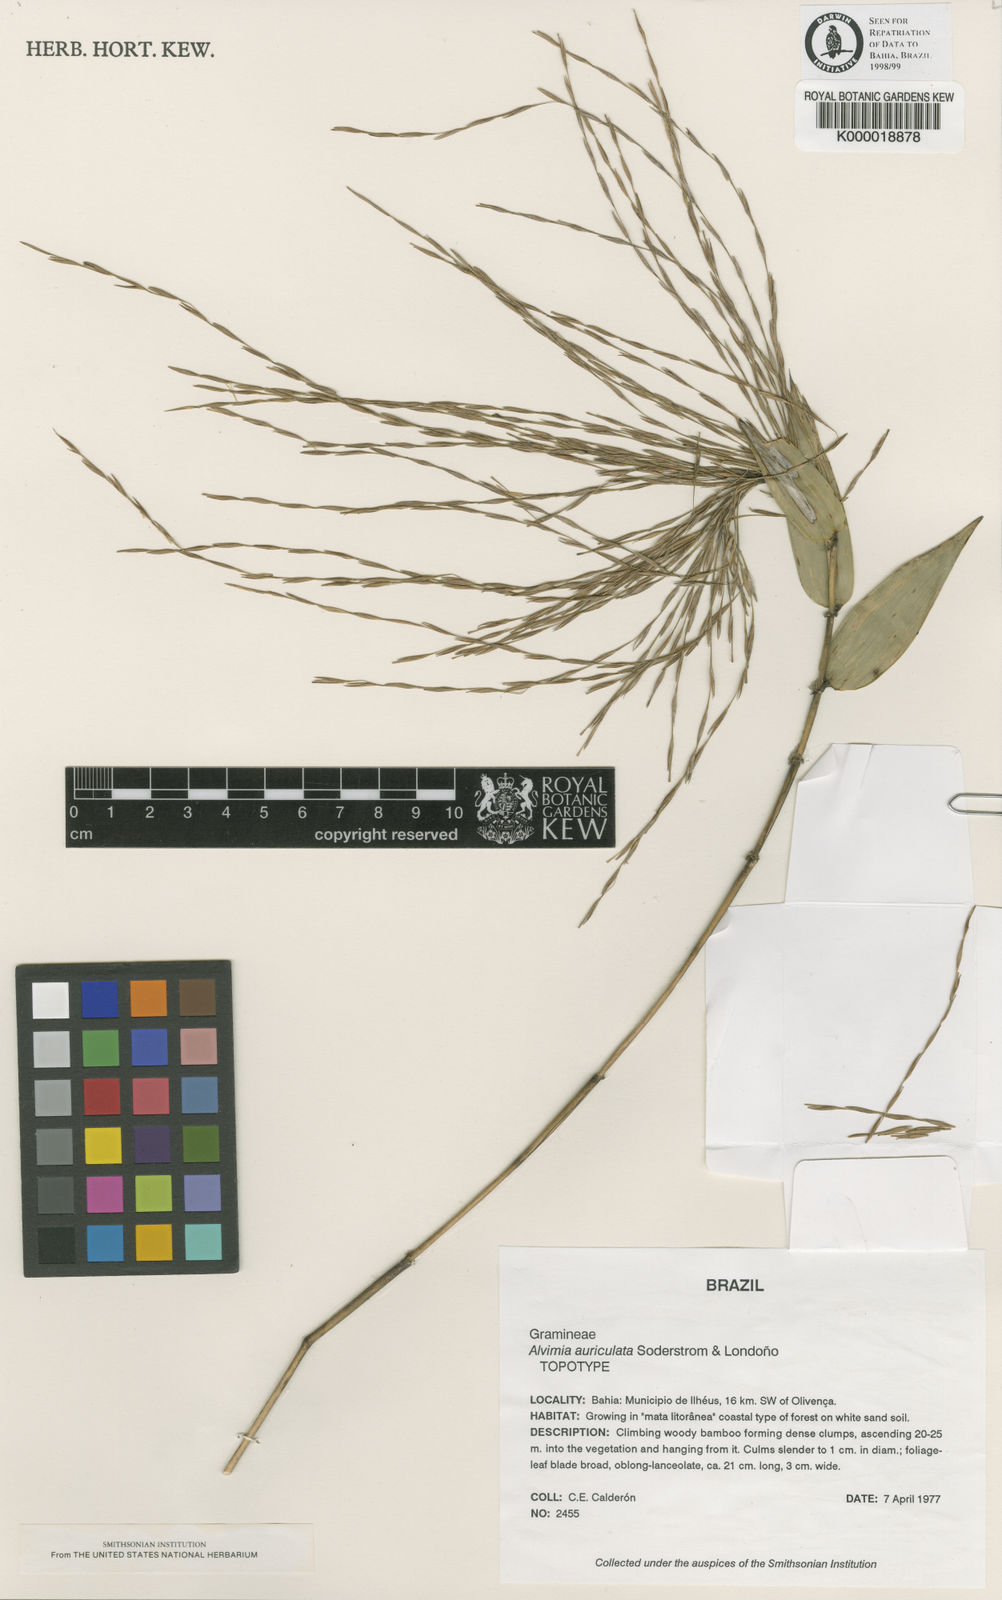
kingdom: Plantae
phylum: Tracheophyta
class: Liliopsida
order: Poales
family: Poaceae
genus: Alvimia
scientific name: Alvimia
